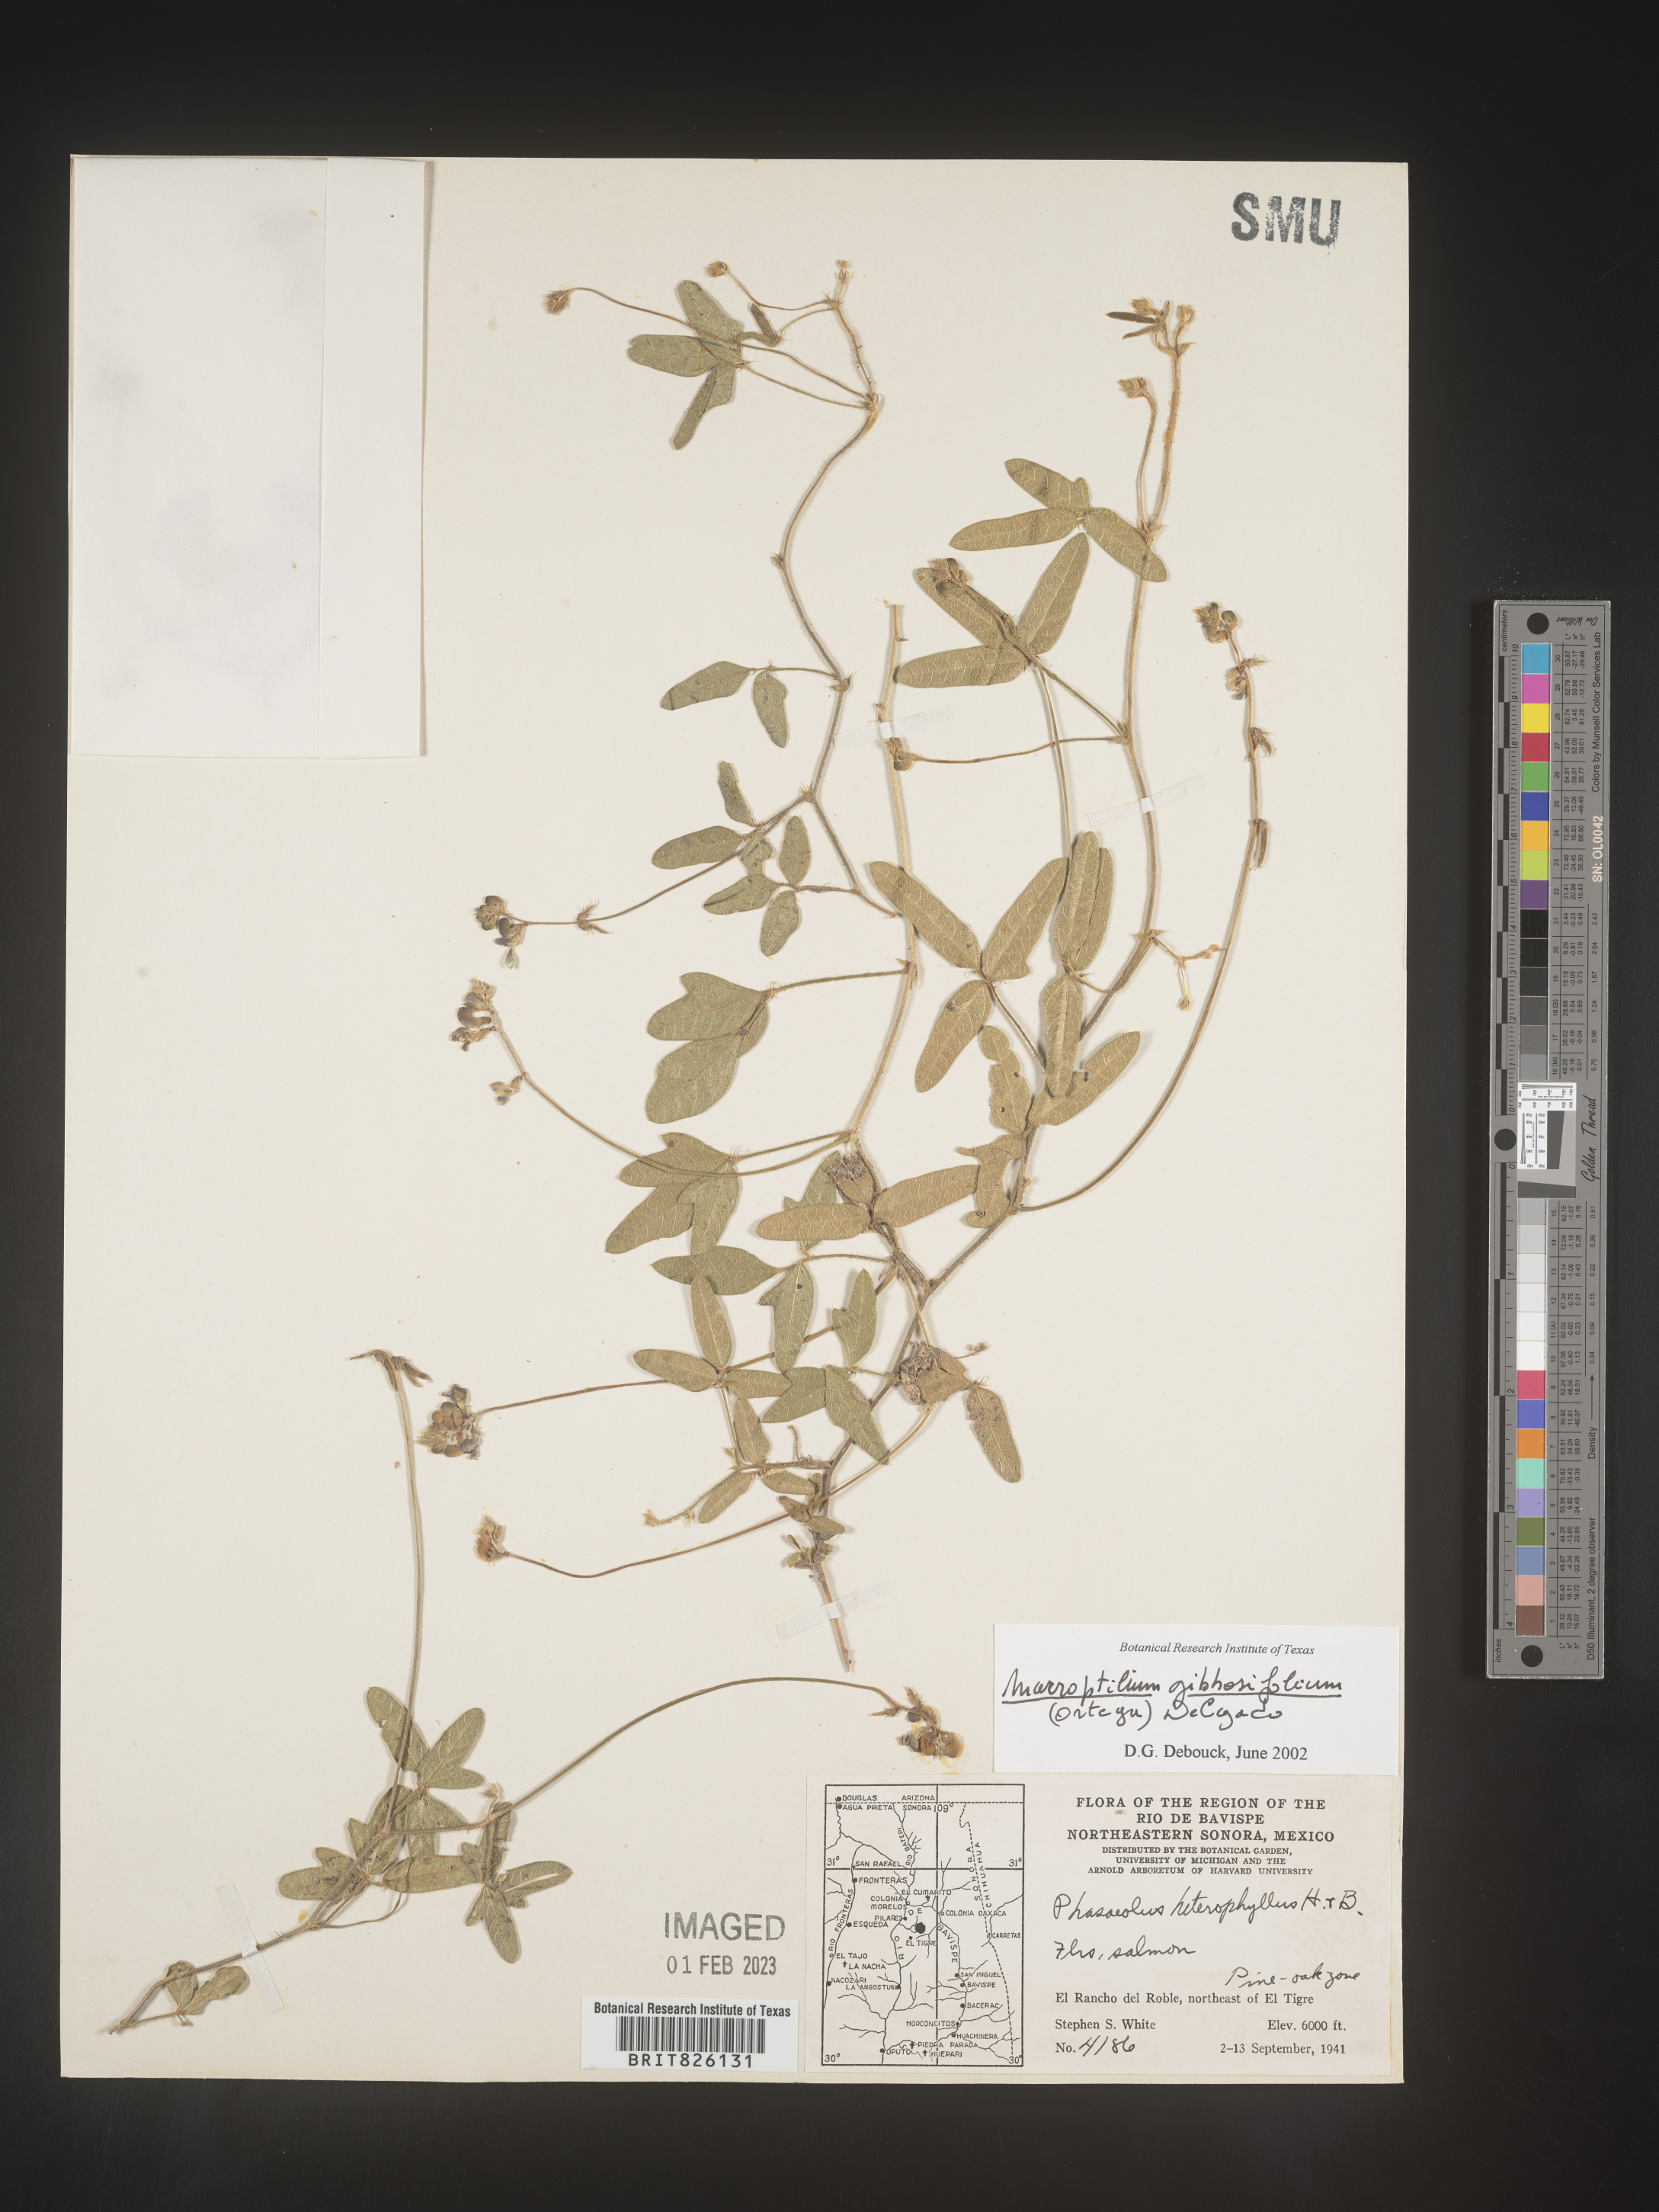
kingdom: Plantae
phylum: Tracheophyta
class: Magnoliopsida
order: Fabales
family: Fabaceae
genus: Macroptilium
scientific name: Macroptilium
